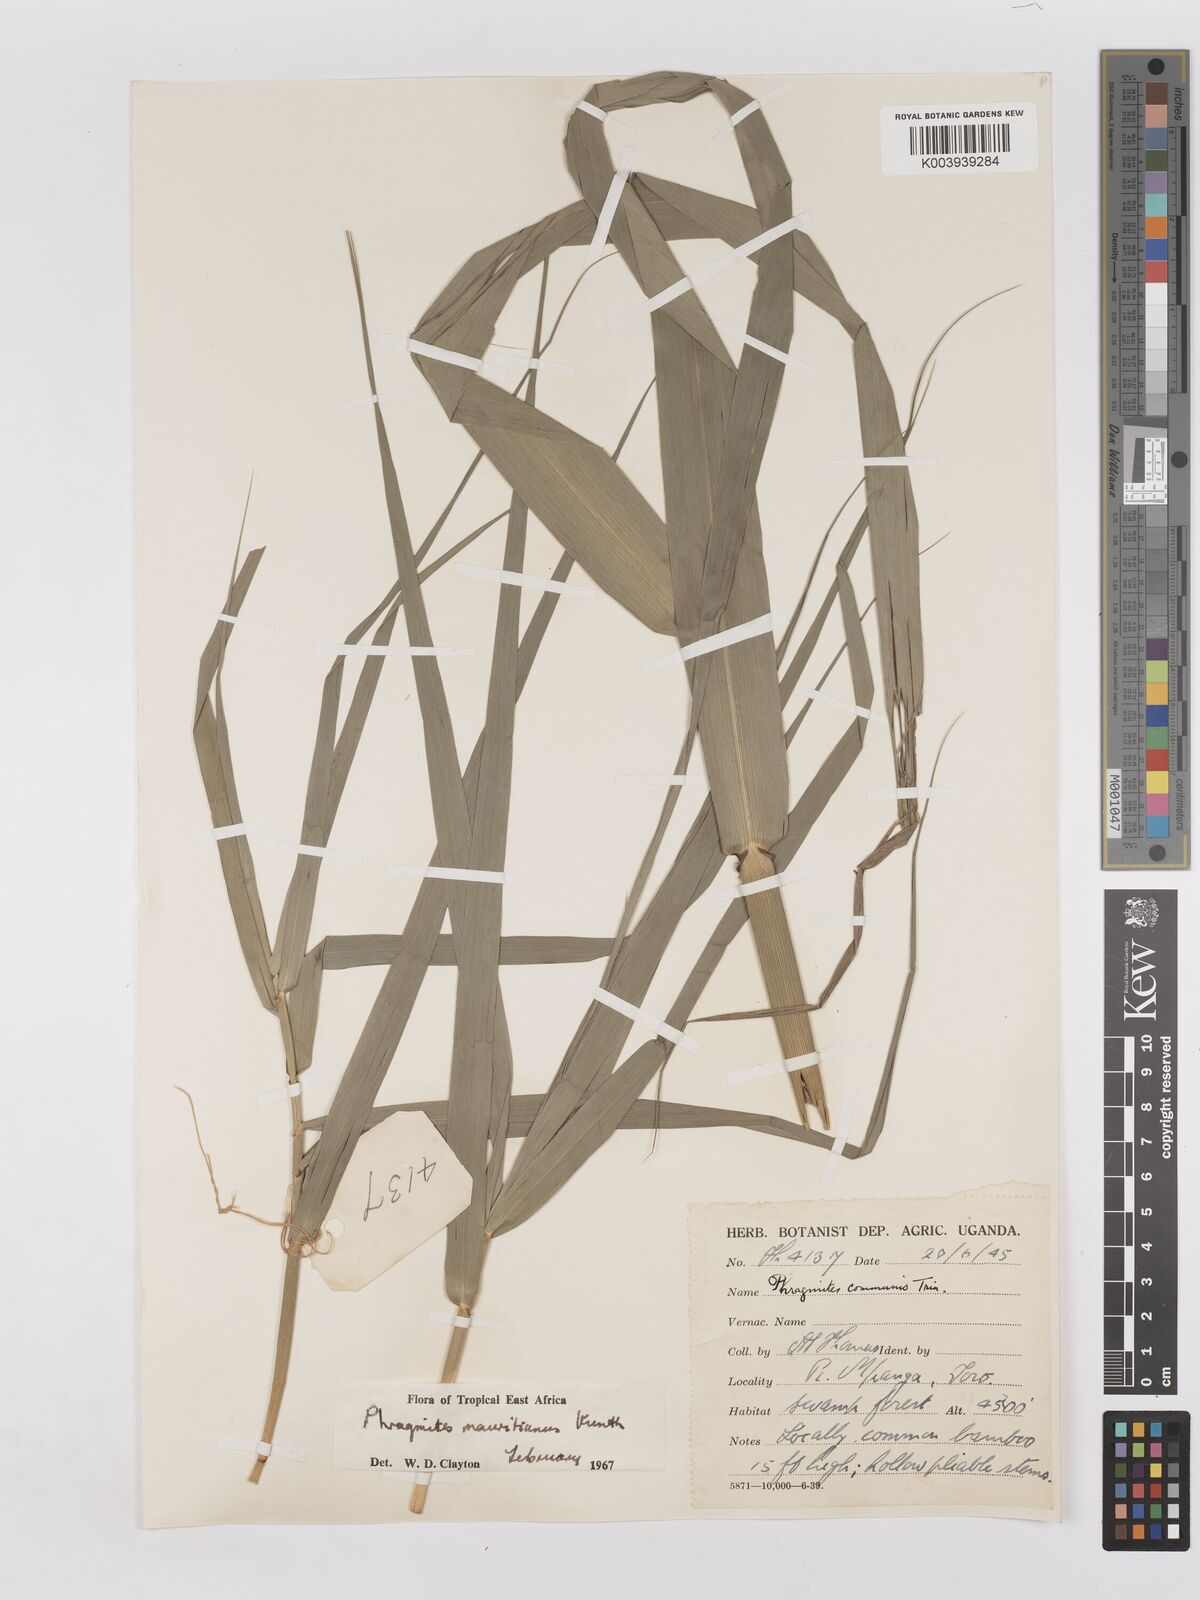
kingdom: Plantae
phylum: Tracheophyta
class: Liliopsida
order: Poales
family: Poaceae
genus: Phragmites
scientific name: Phragmites mauritianus
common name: Reed grass
